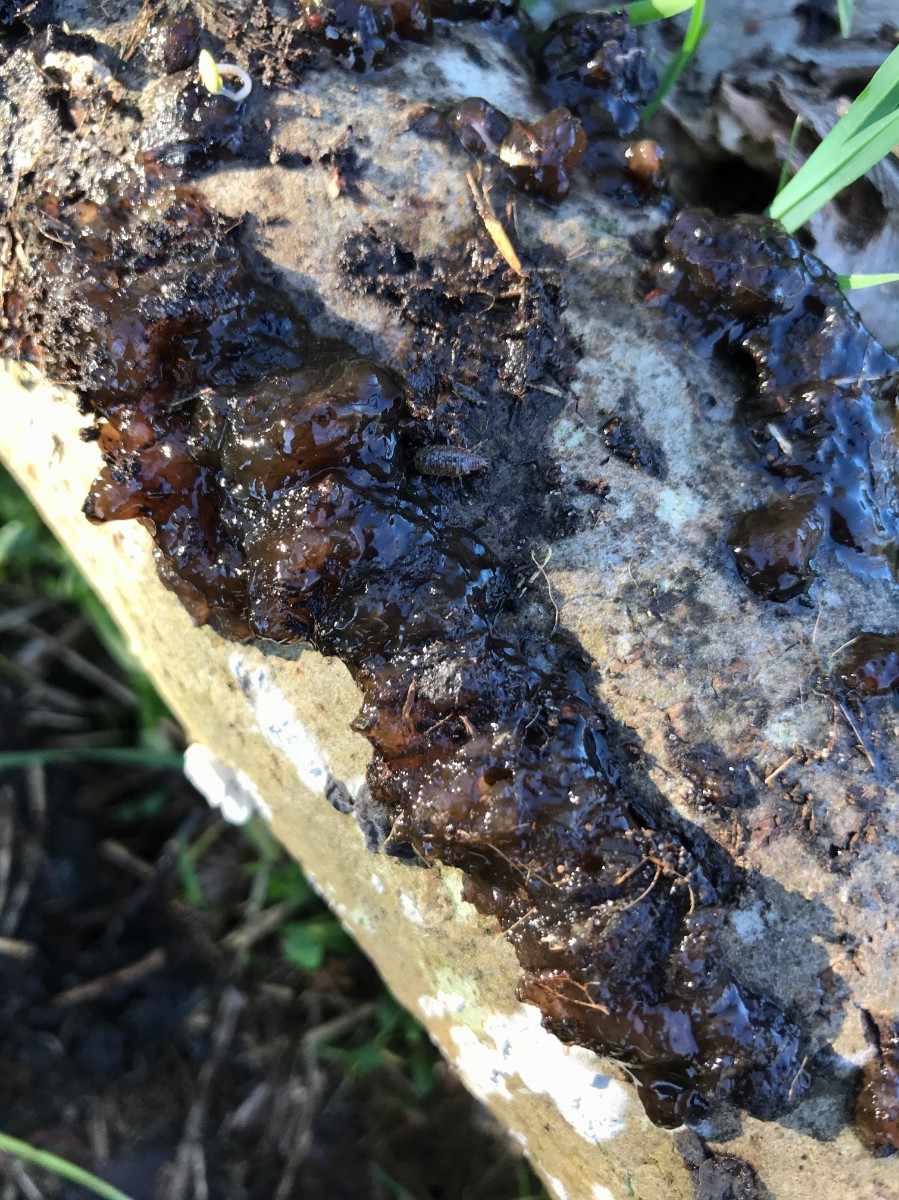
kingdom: Fungi
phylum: Basidiomycota
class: Agaricomycetes
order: Auriculariales
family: Auriculariaceae
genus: Exidia
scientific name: Exidia nigricans
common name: almindelig bævretop
